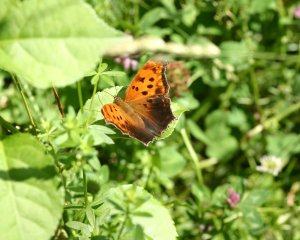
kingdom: Animalia
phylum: Arthropoda
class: Insecta
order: Lepidoptera
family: Nymphalidae
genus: Polygonia
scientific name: Polygonia comma
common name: Eastern Comma
